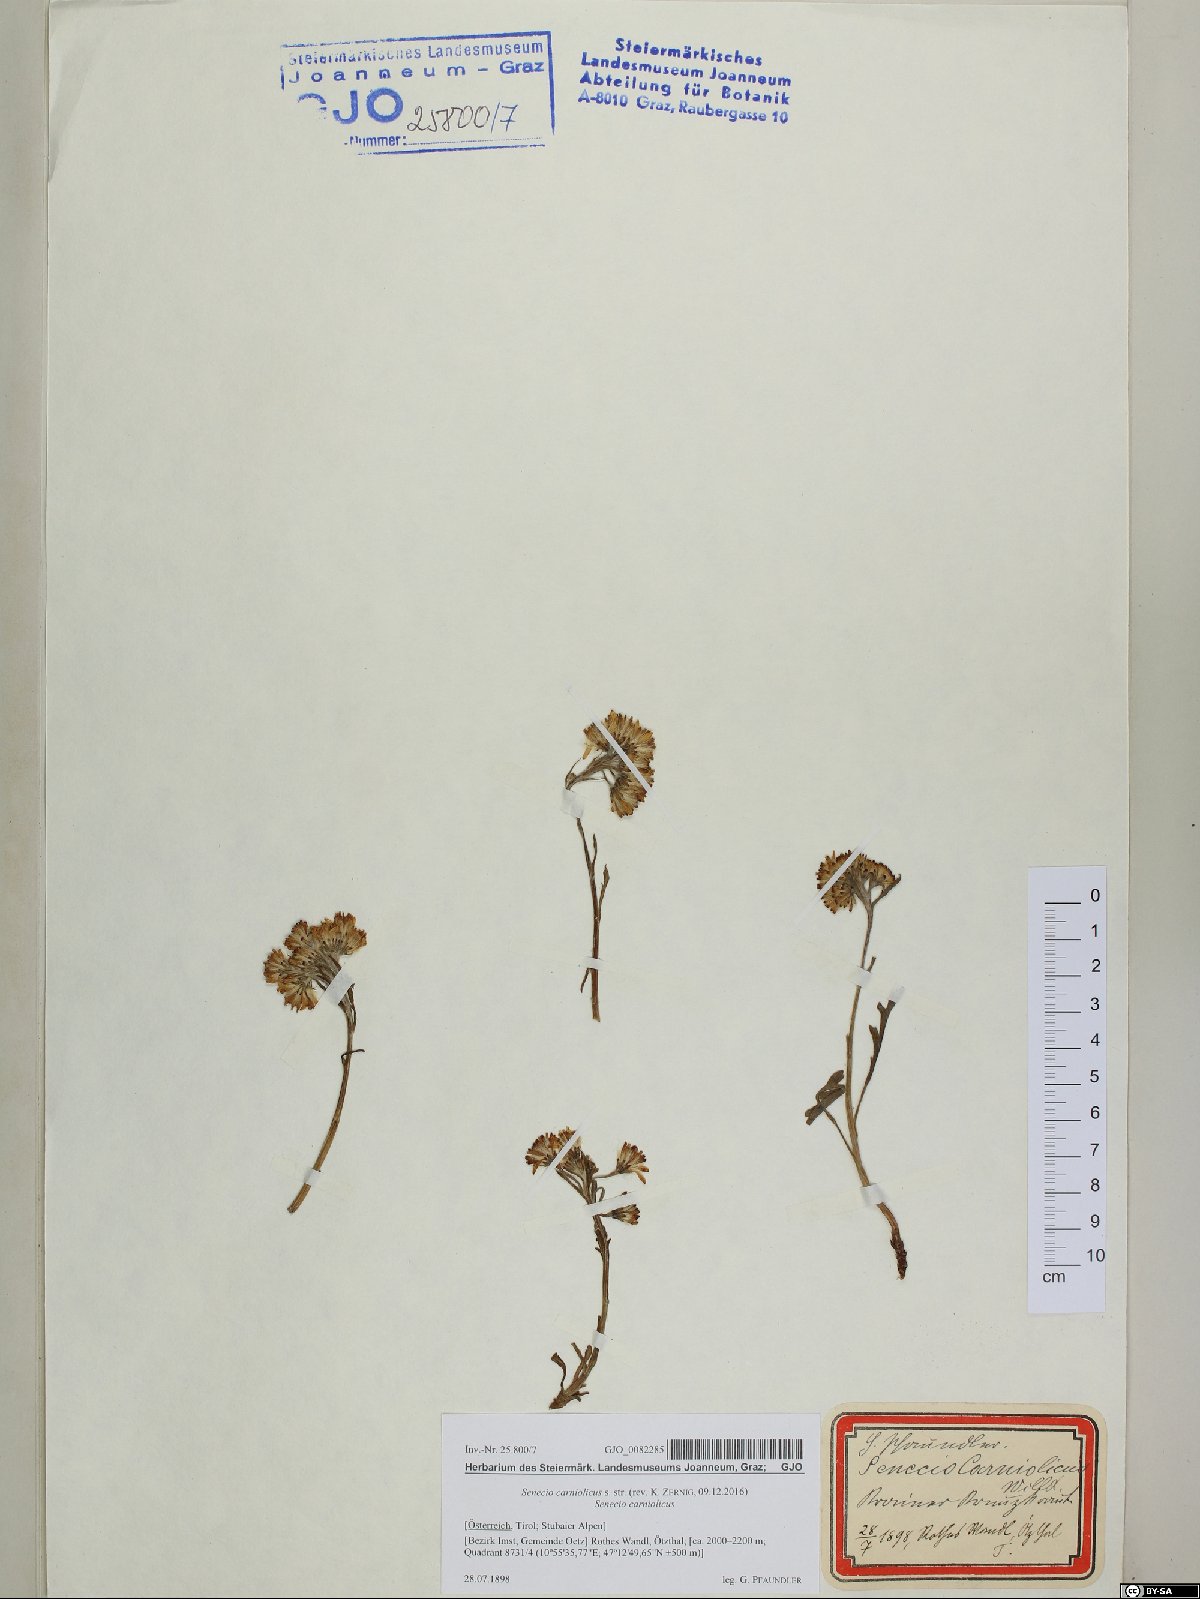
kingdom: Plantae
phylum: Tracheophyta
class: Magnoliopsida
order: Asterales
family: Asteraceae
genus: Jacobaea
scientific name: Jacobaea carniolica
